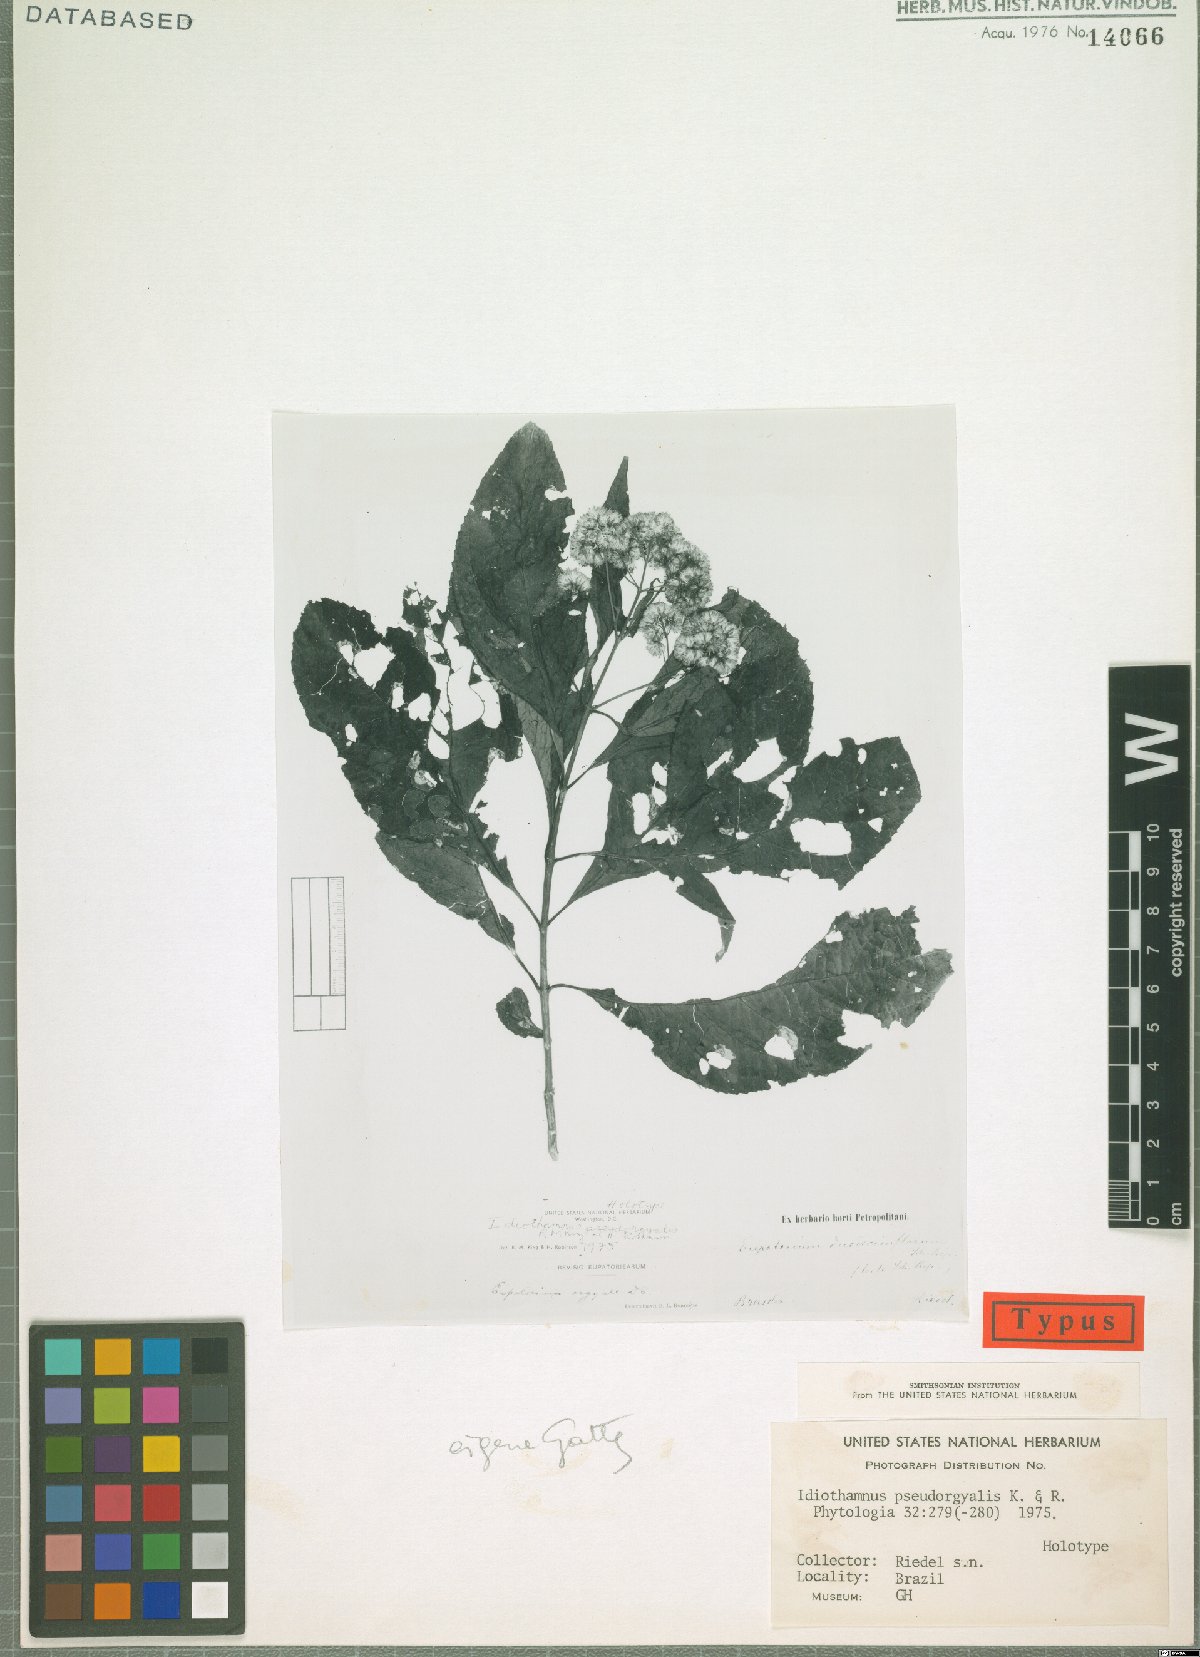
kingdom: Plantae
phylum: Tracheophyta
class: Magnoliopsida
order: Asterales
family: Asteraceae
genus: Idiothamnus
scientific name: Idiothamnus pseudorgyalis
